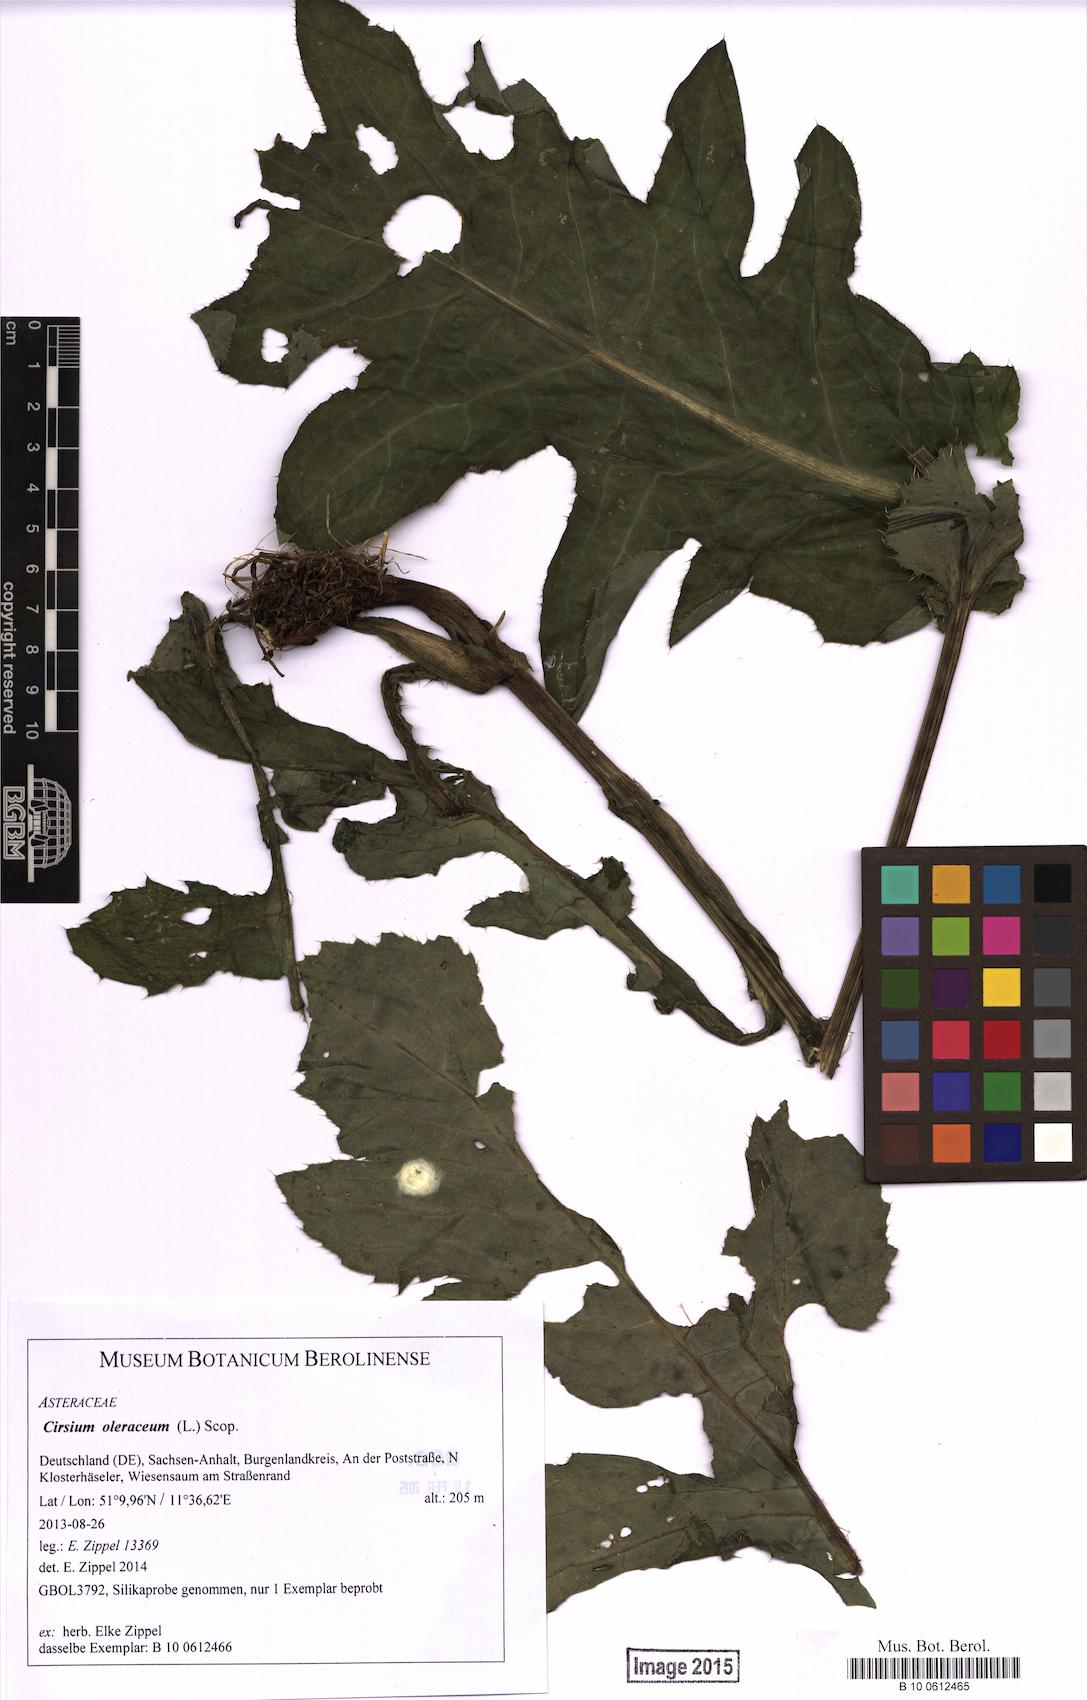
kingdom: Plantae
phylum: Tracheophyta
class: Magnoliopsida
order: Asterales
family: Asteraceae
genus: Cirsium
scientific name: Cirsium oleraceum
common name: Cabbage thistle
